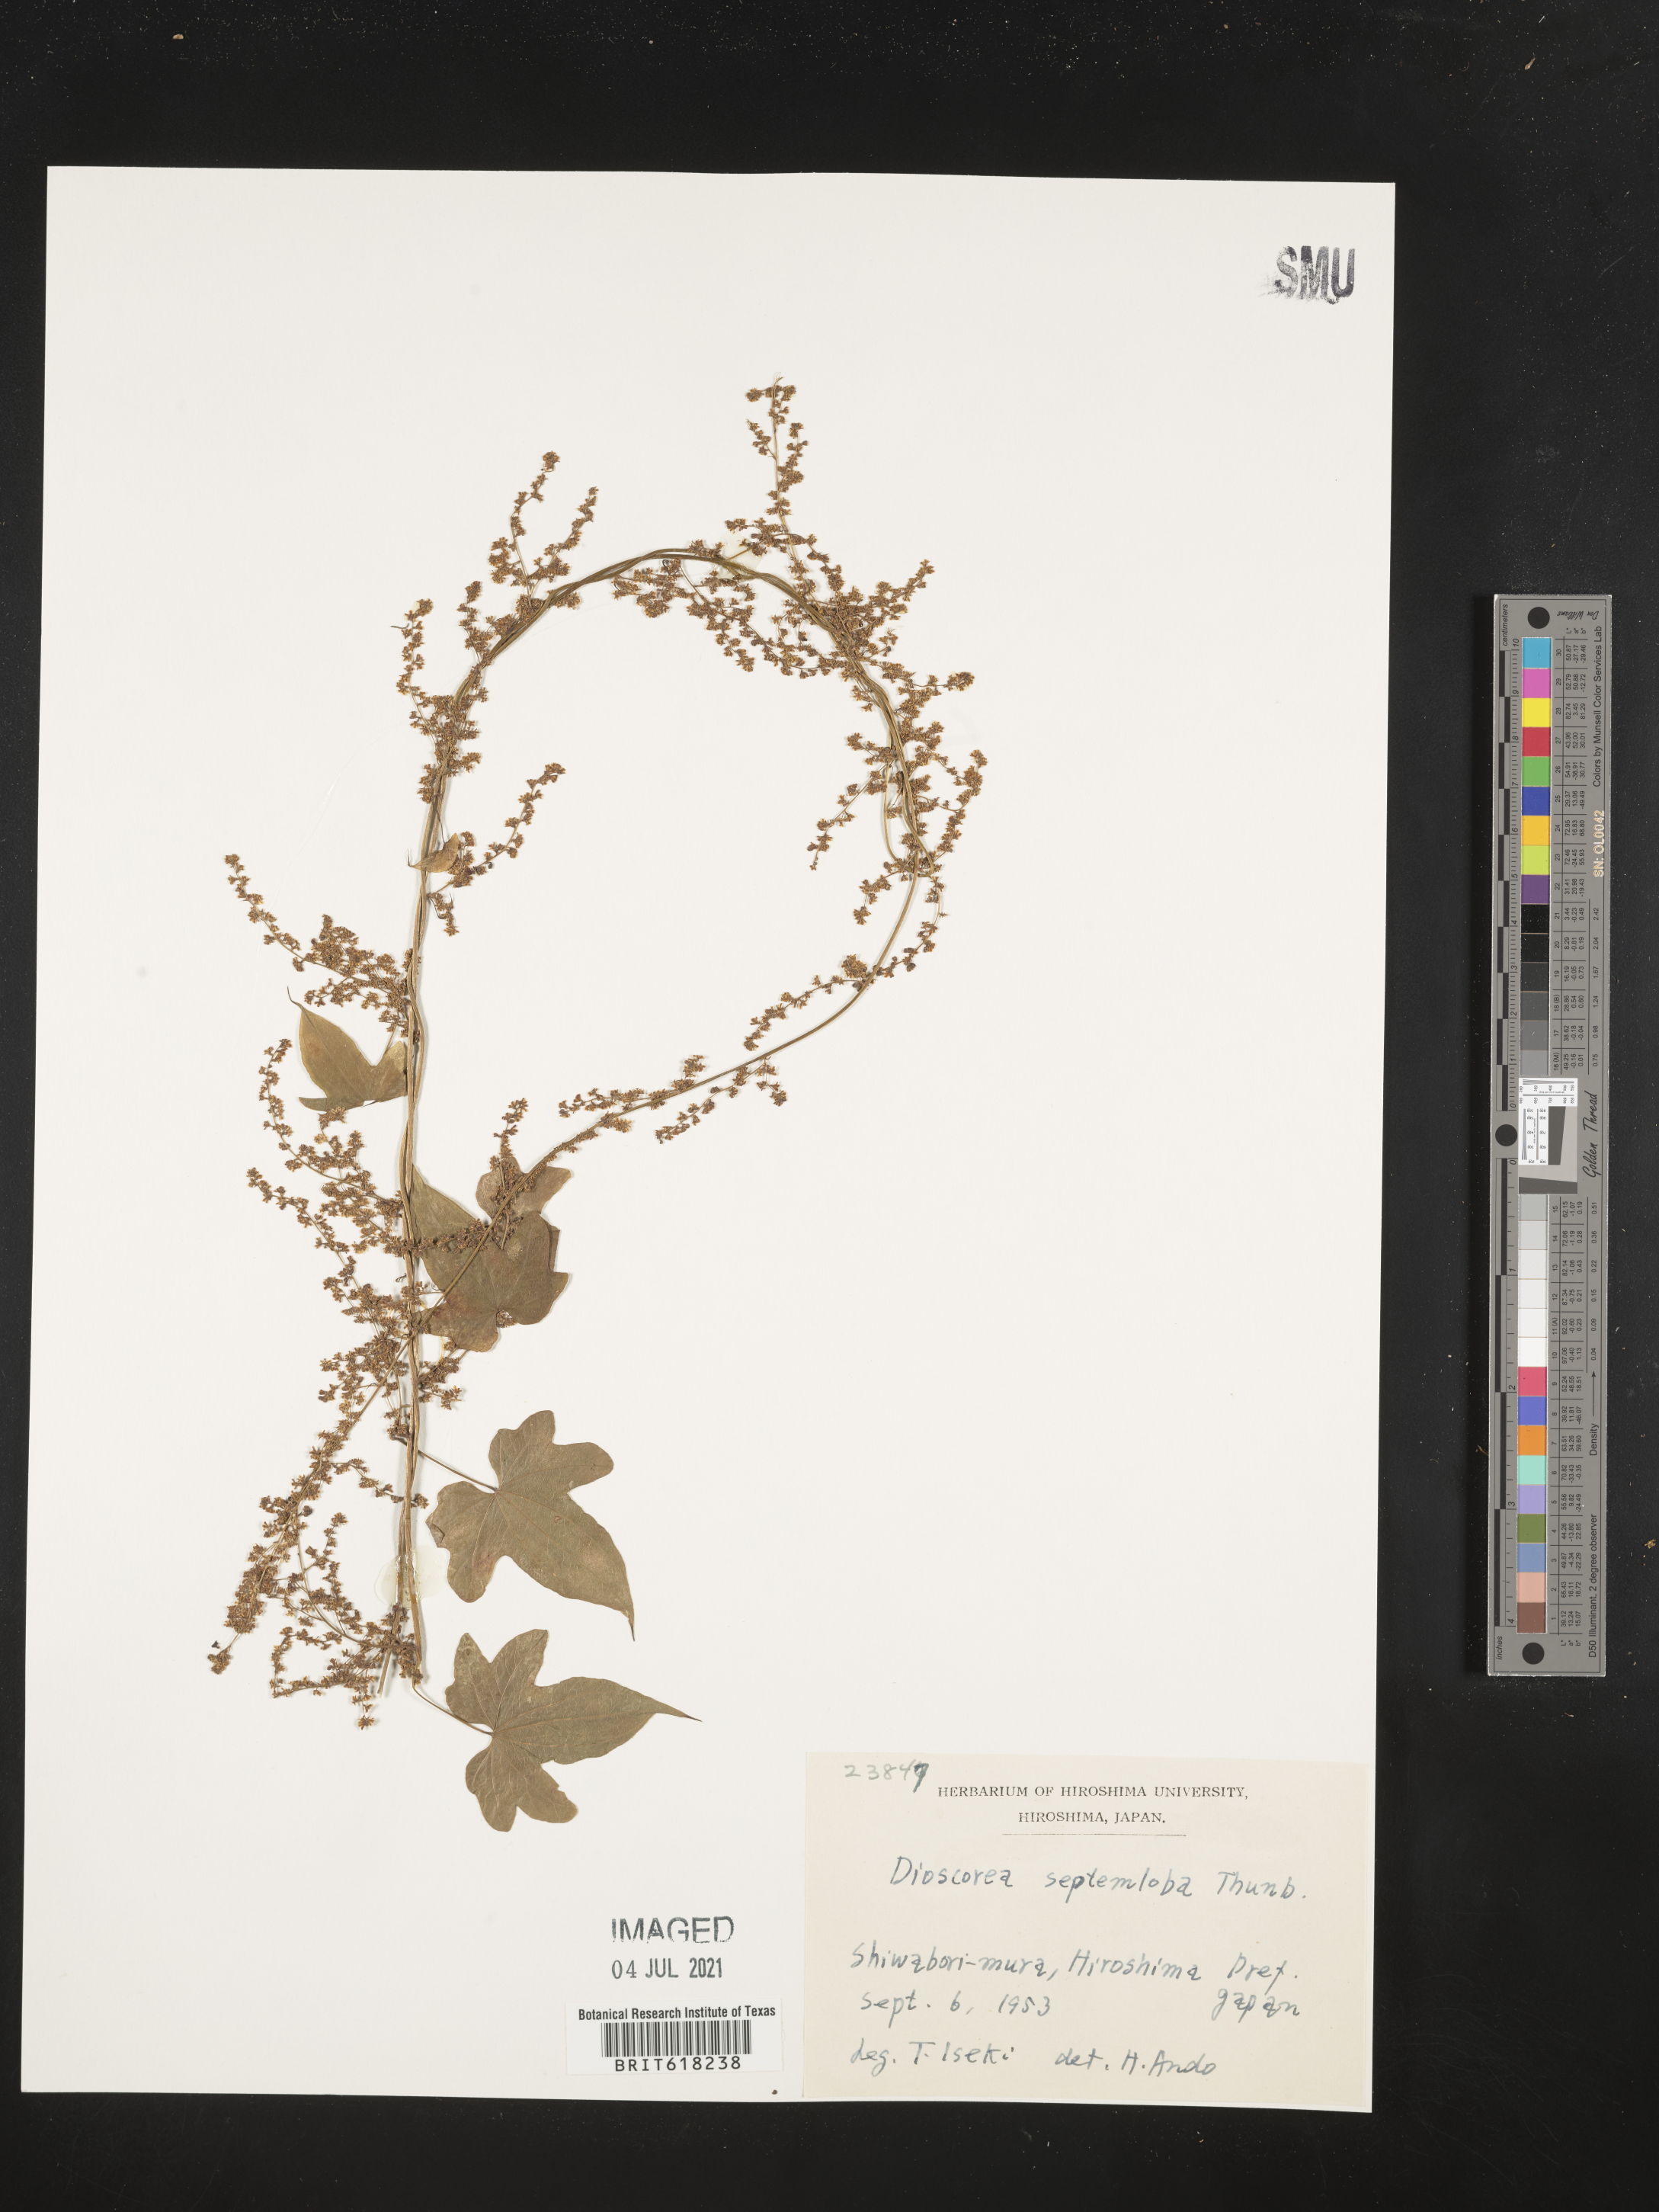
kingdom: Plantae
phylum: Tracheophyta
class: Liliopsida
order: Dioscoreales
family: Dioscoreaceae
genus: Dioscorea
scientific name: Dioscorea septemloba
